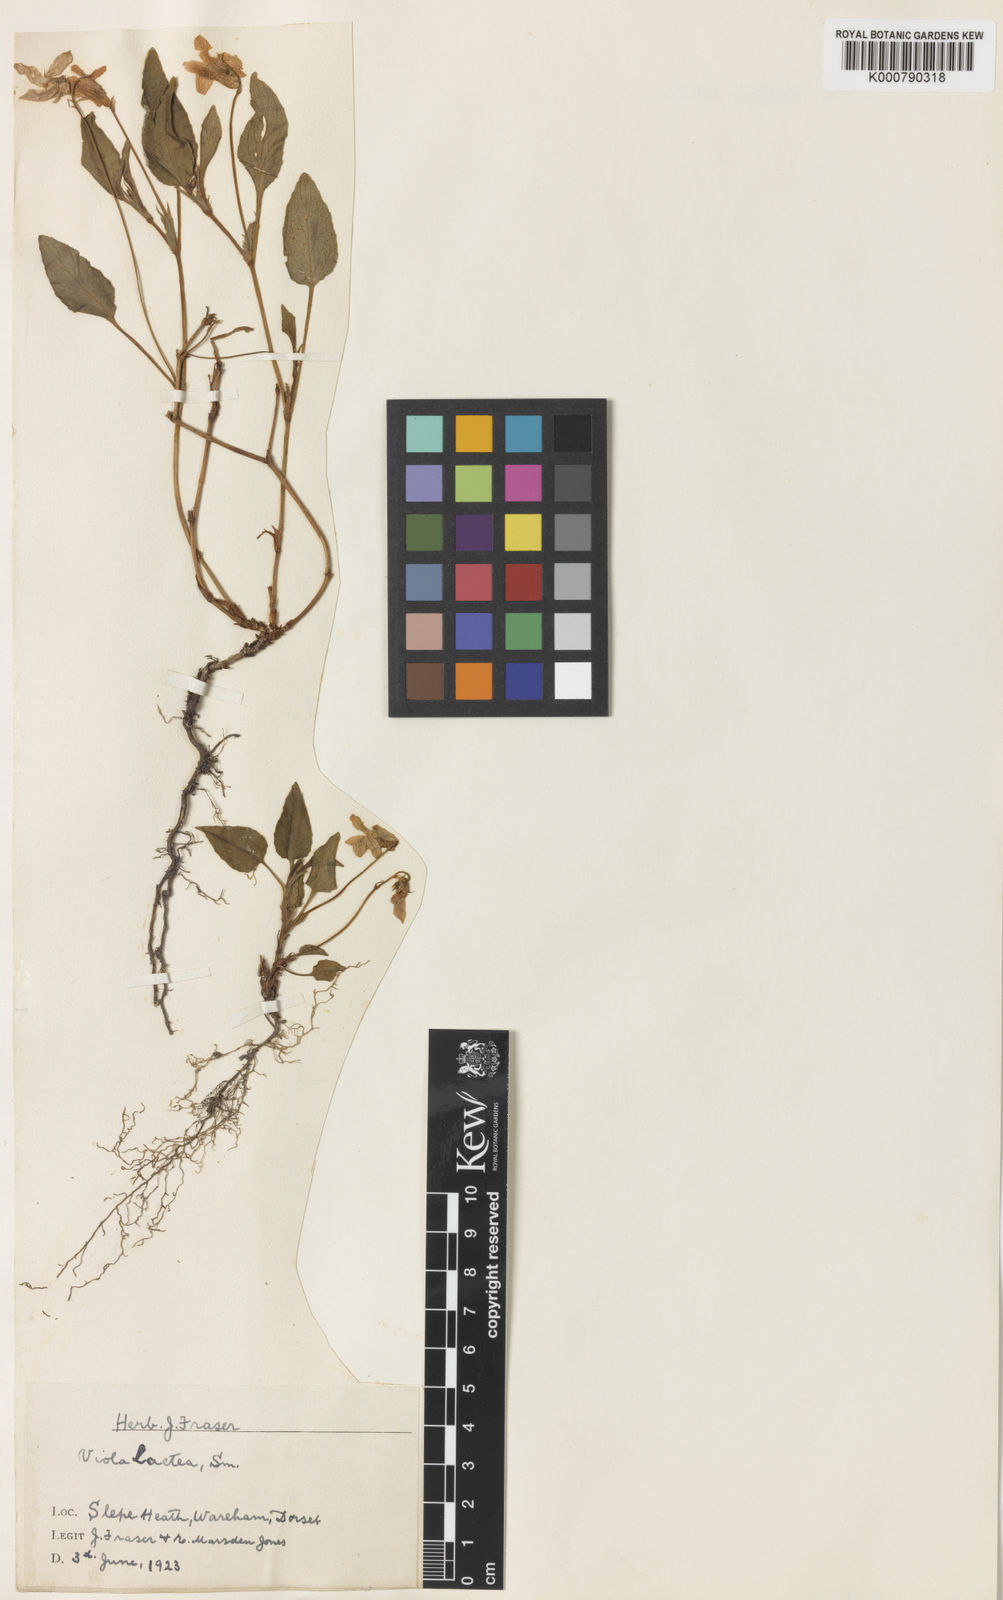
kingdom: Plantae
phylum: Tracheophyta
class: Magnoliopsida
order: Malpighiales
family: Violaceae
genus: Viola
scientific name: Viola lactea
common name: Pale dog-violet
